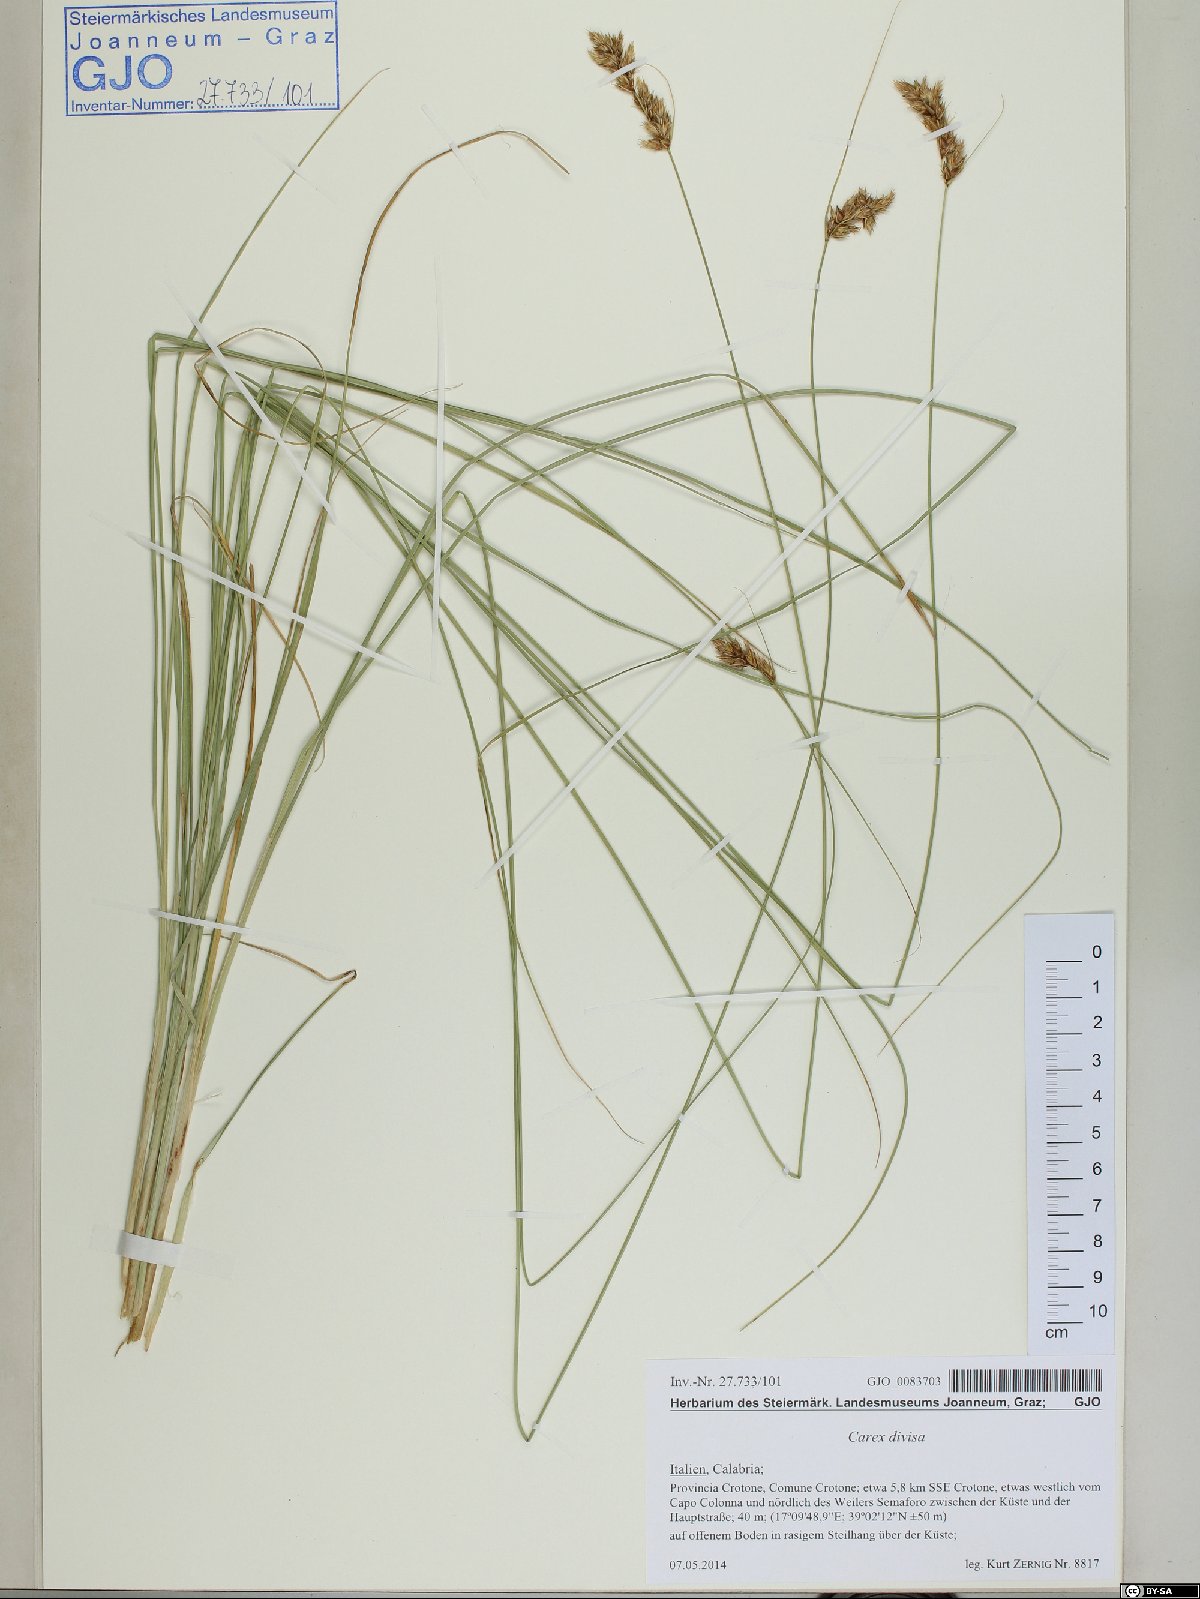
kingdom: Plantae
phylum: Tracheophyta
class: Liliopsida
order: Poales
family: Cyperaceae
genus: Carex
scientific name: Carex divisa
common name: Divided sedge
